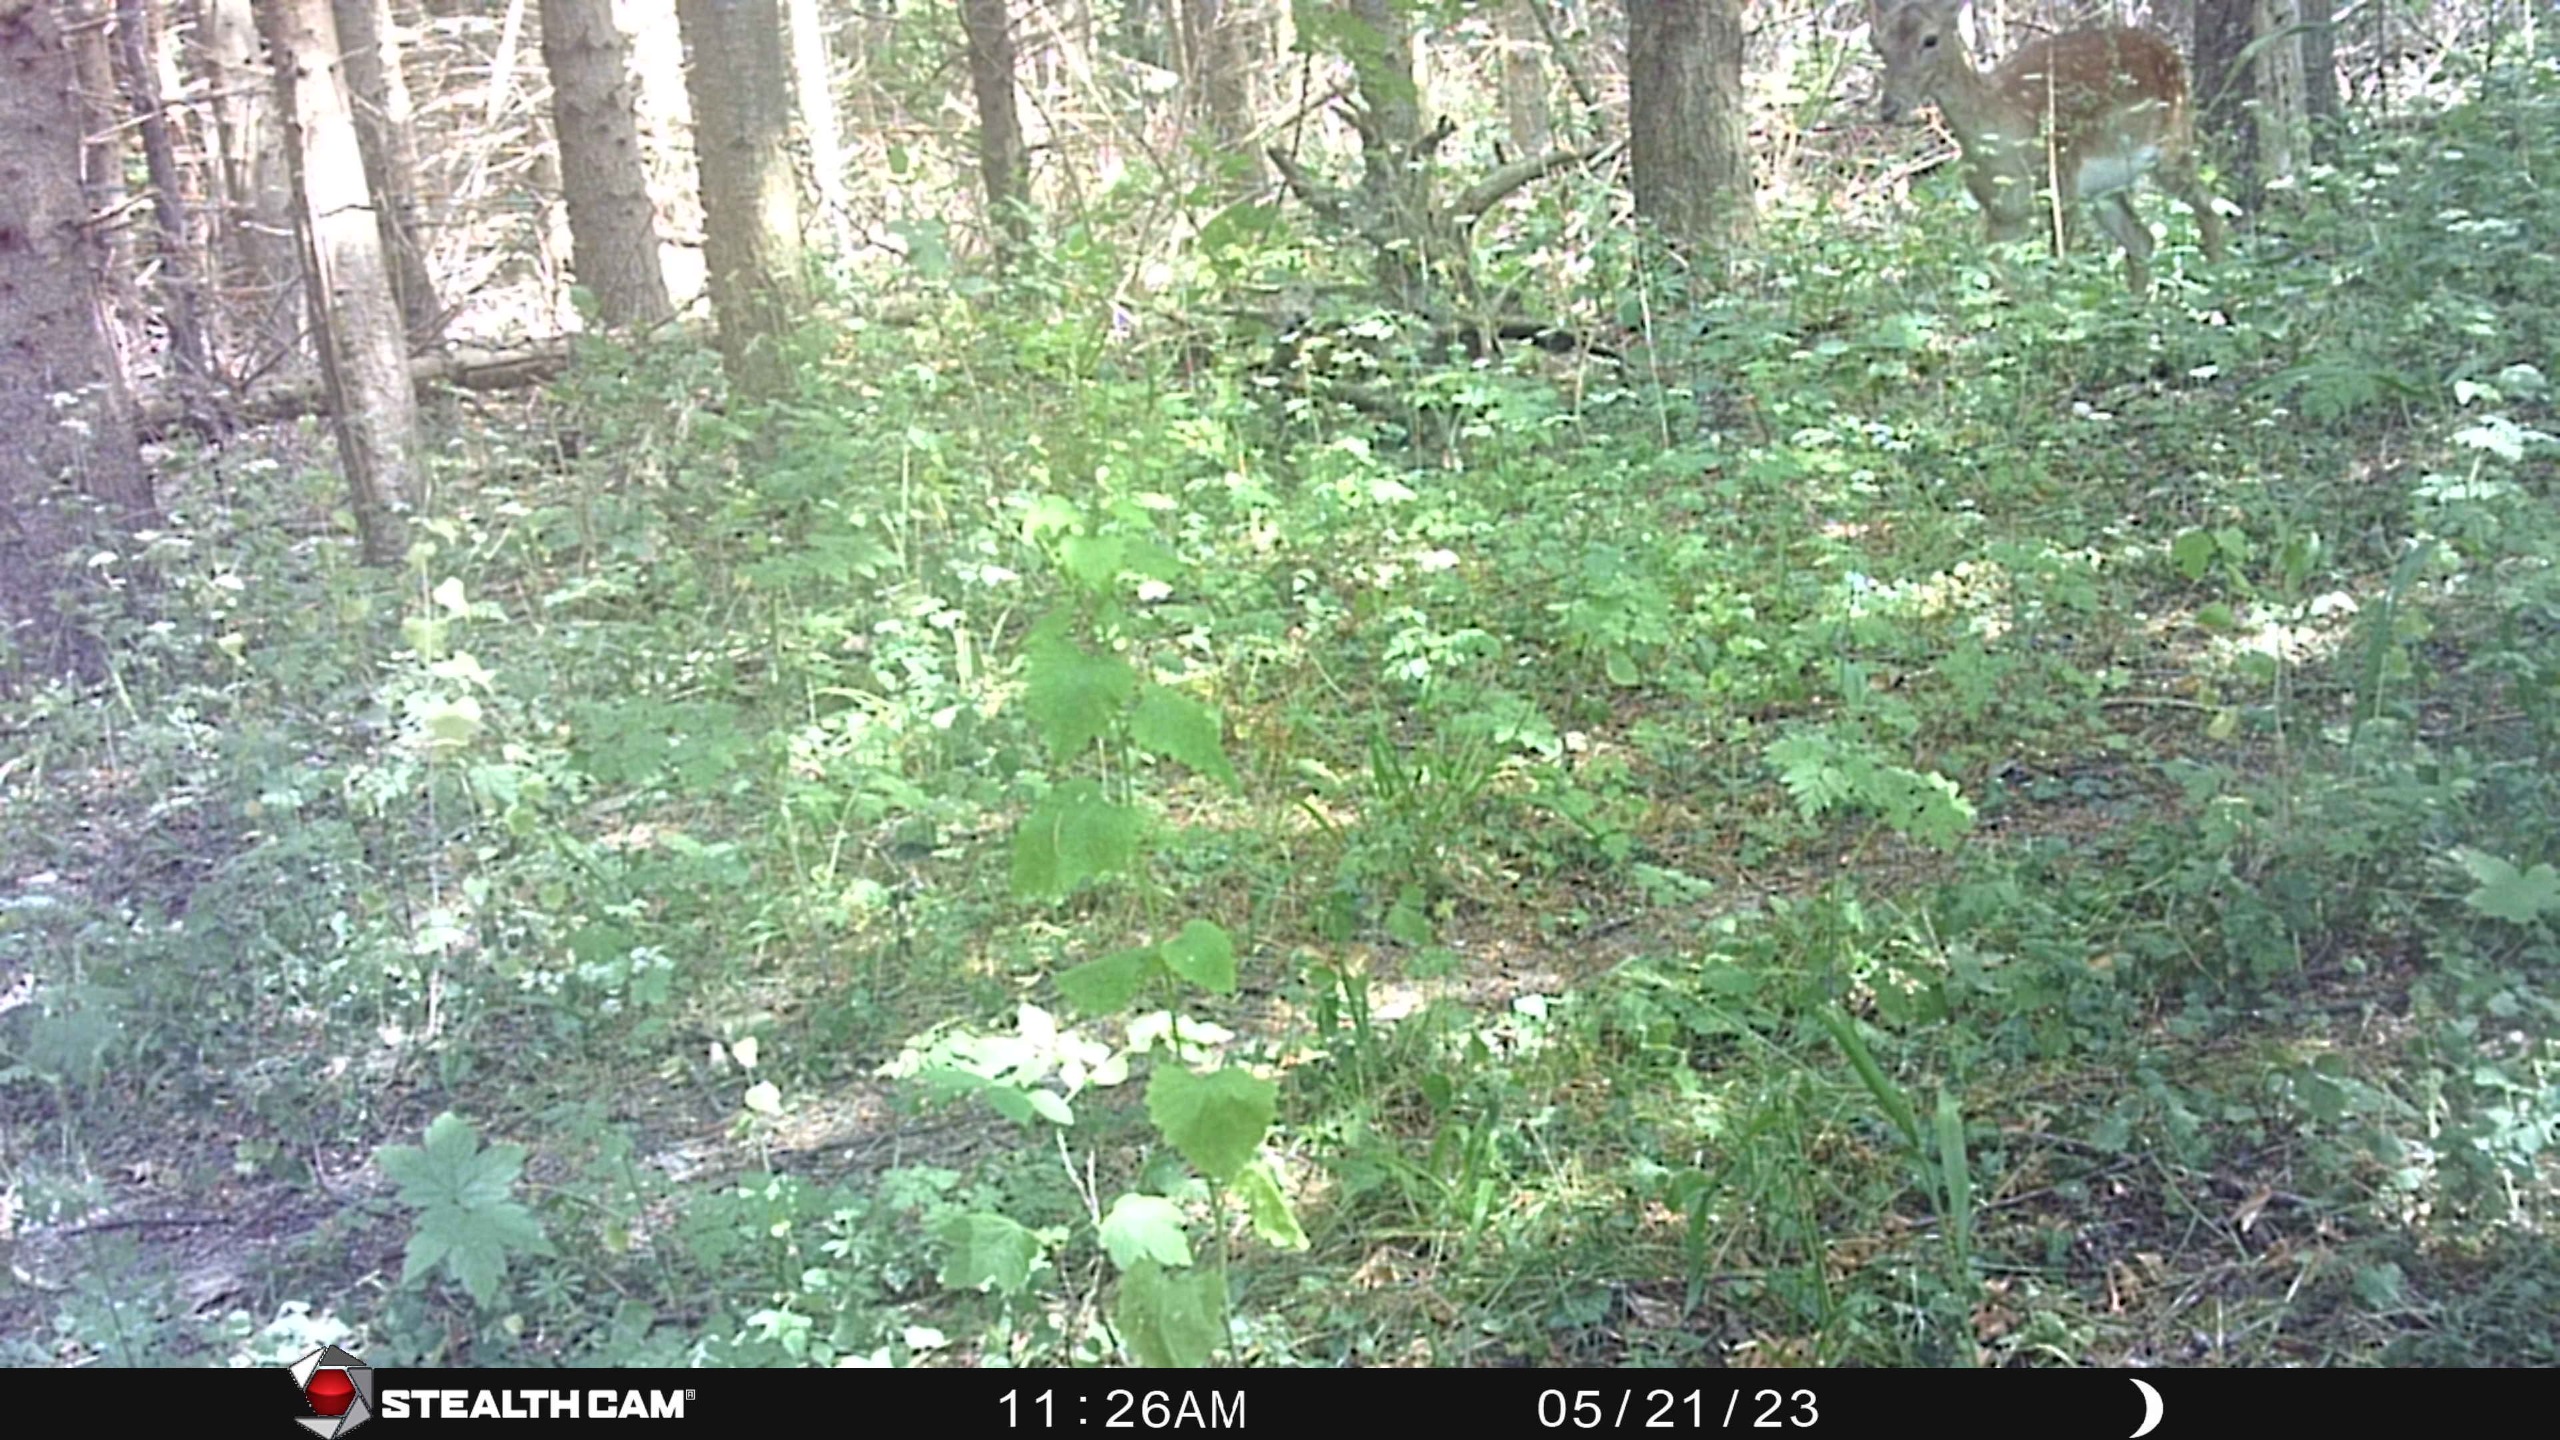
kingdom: Animalia
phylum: Chordata
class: Mammalia
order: Artiodactyla
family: Cervidae
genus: Dama
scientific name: Dama dama
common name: Dådyr
